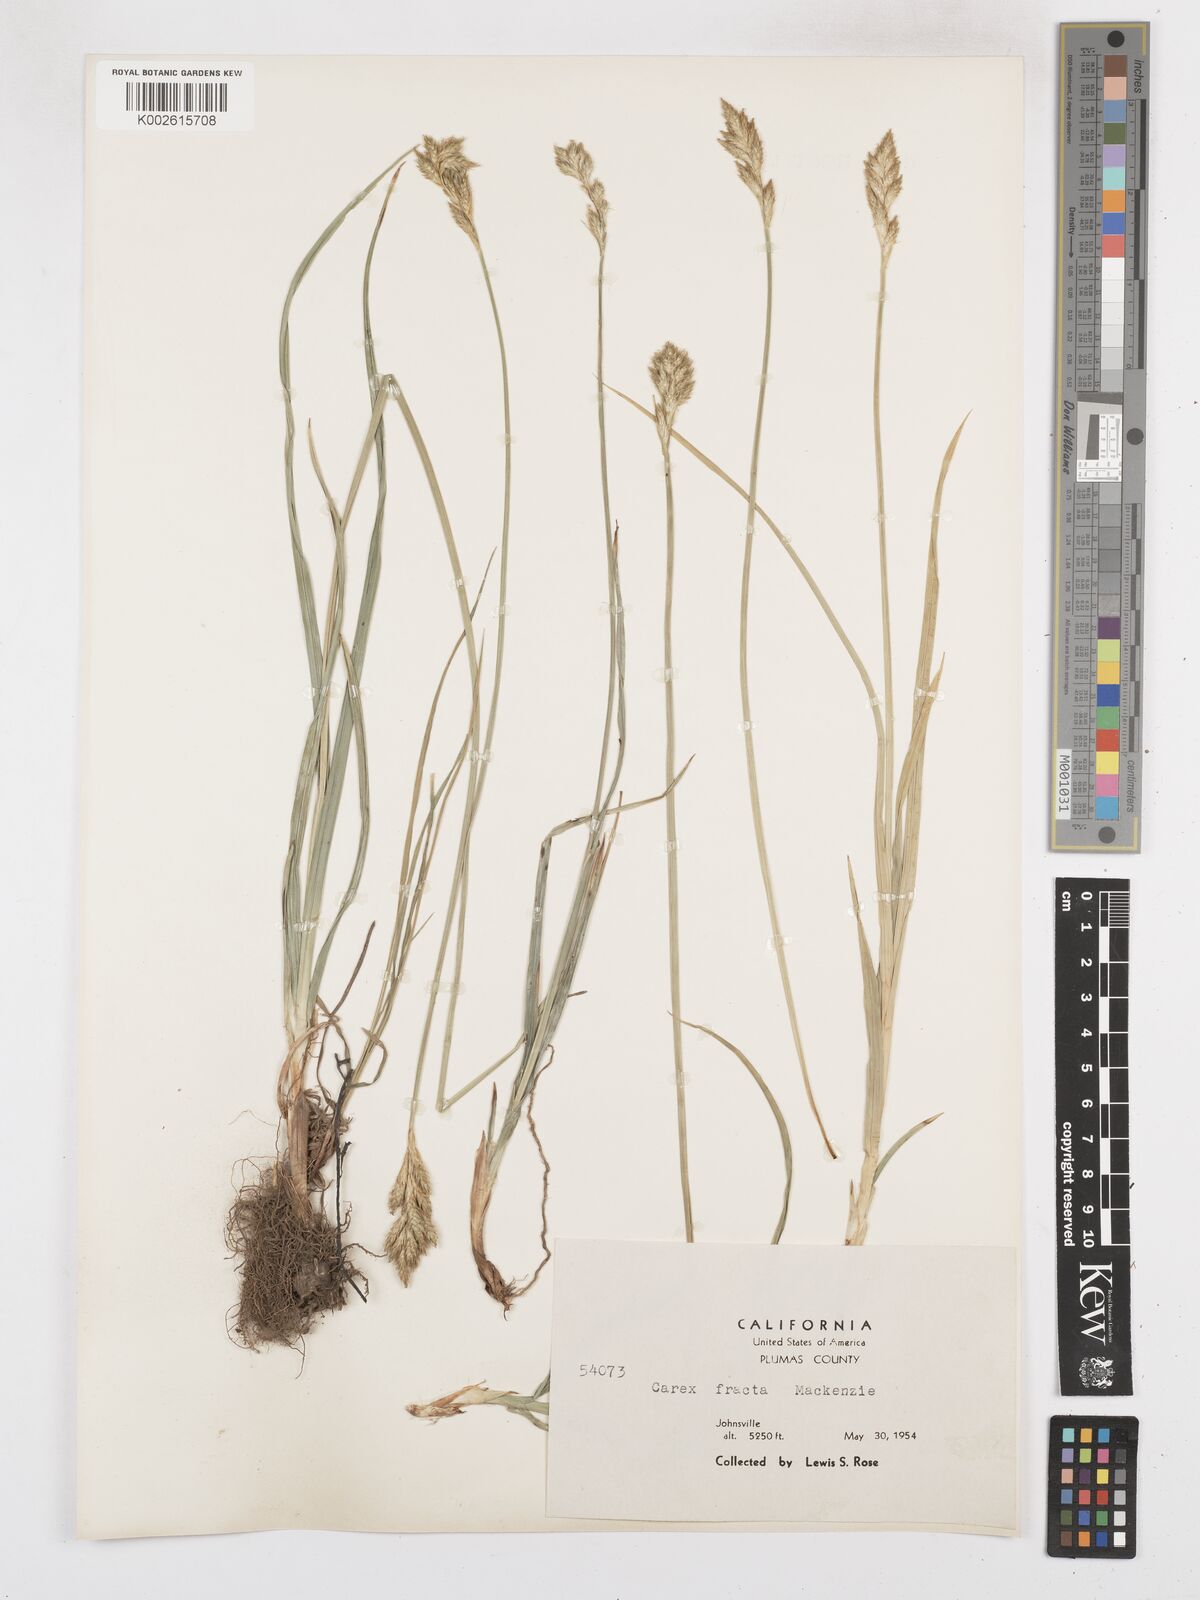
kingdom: Plantae
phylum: Tracheophyta
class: Liliopsida
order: Poales
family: Cyperaceae
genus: Carex
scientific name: Carex fracta
